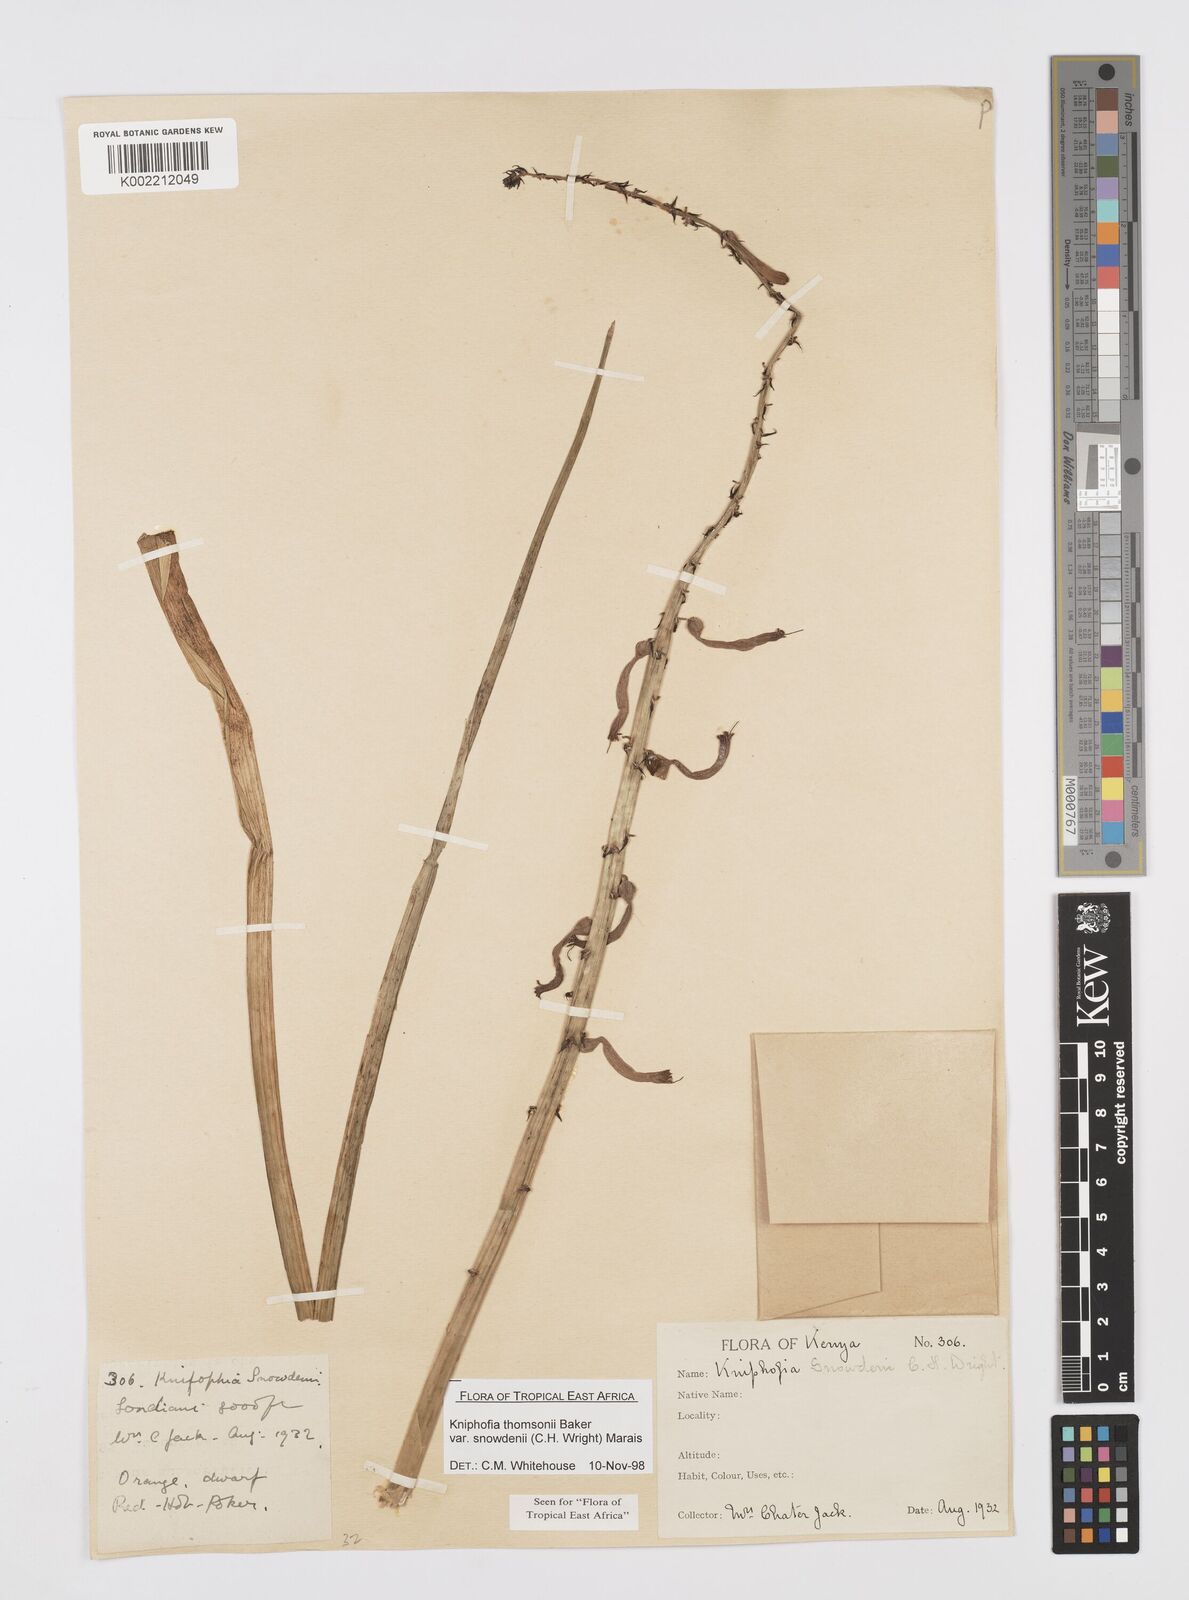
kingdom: Plantae
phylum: Tracheophyta
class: Liliopsida
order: Asparagales
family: Asphodelaceae
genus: Kniphofia
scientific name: Kniphofia
